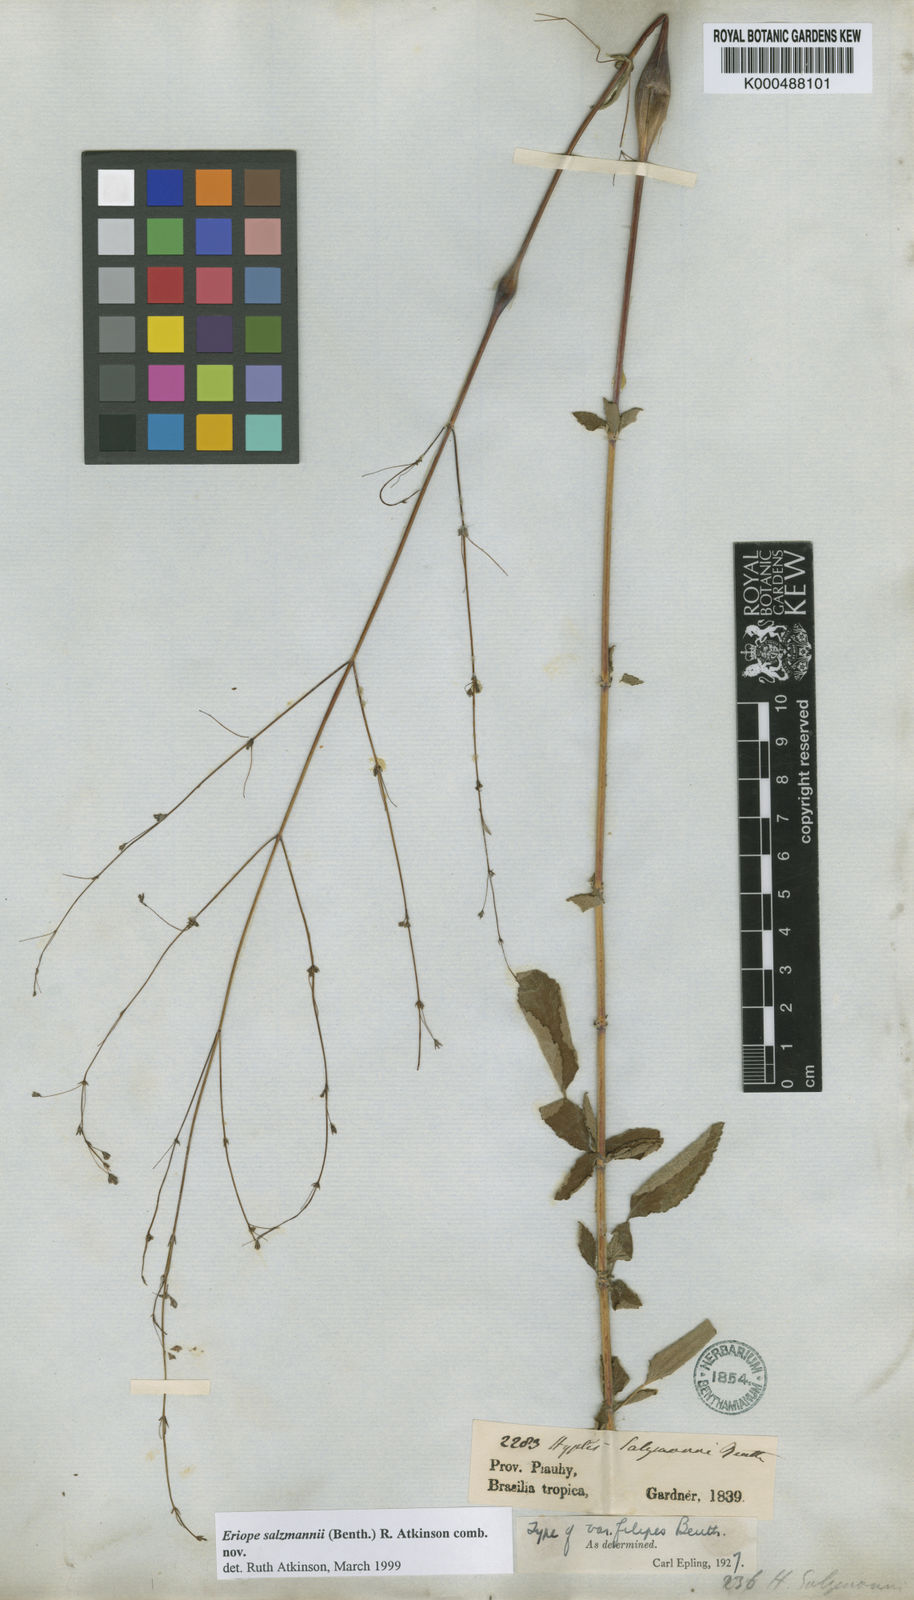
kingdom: Plantae
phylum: Tracheophyta
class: Magnoliopsida
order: Lamiales
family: Lamiaceae
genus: Hypenia
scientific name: Hypenia salzmannii
